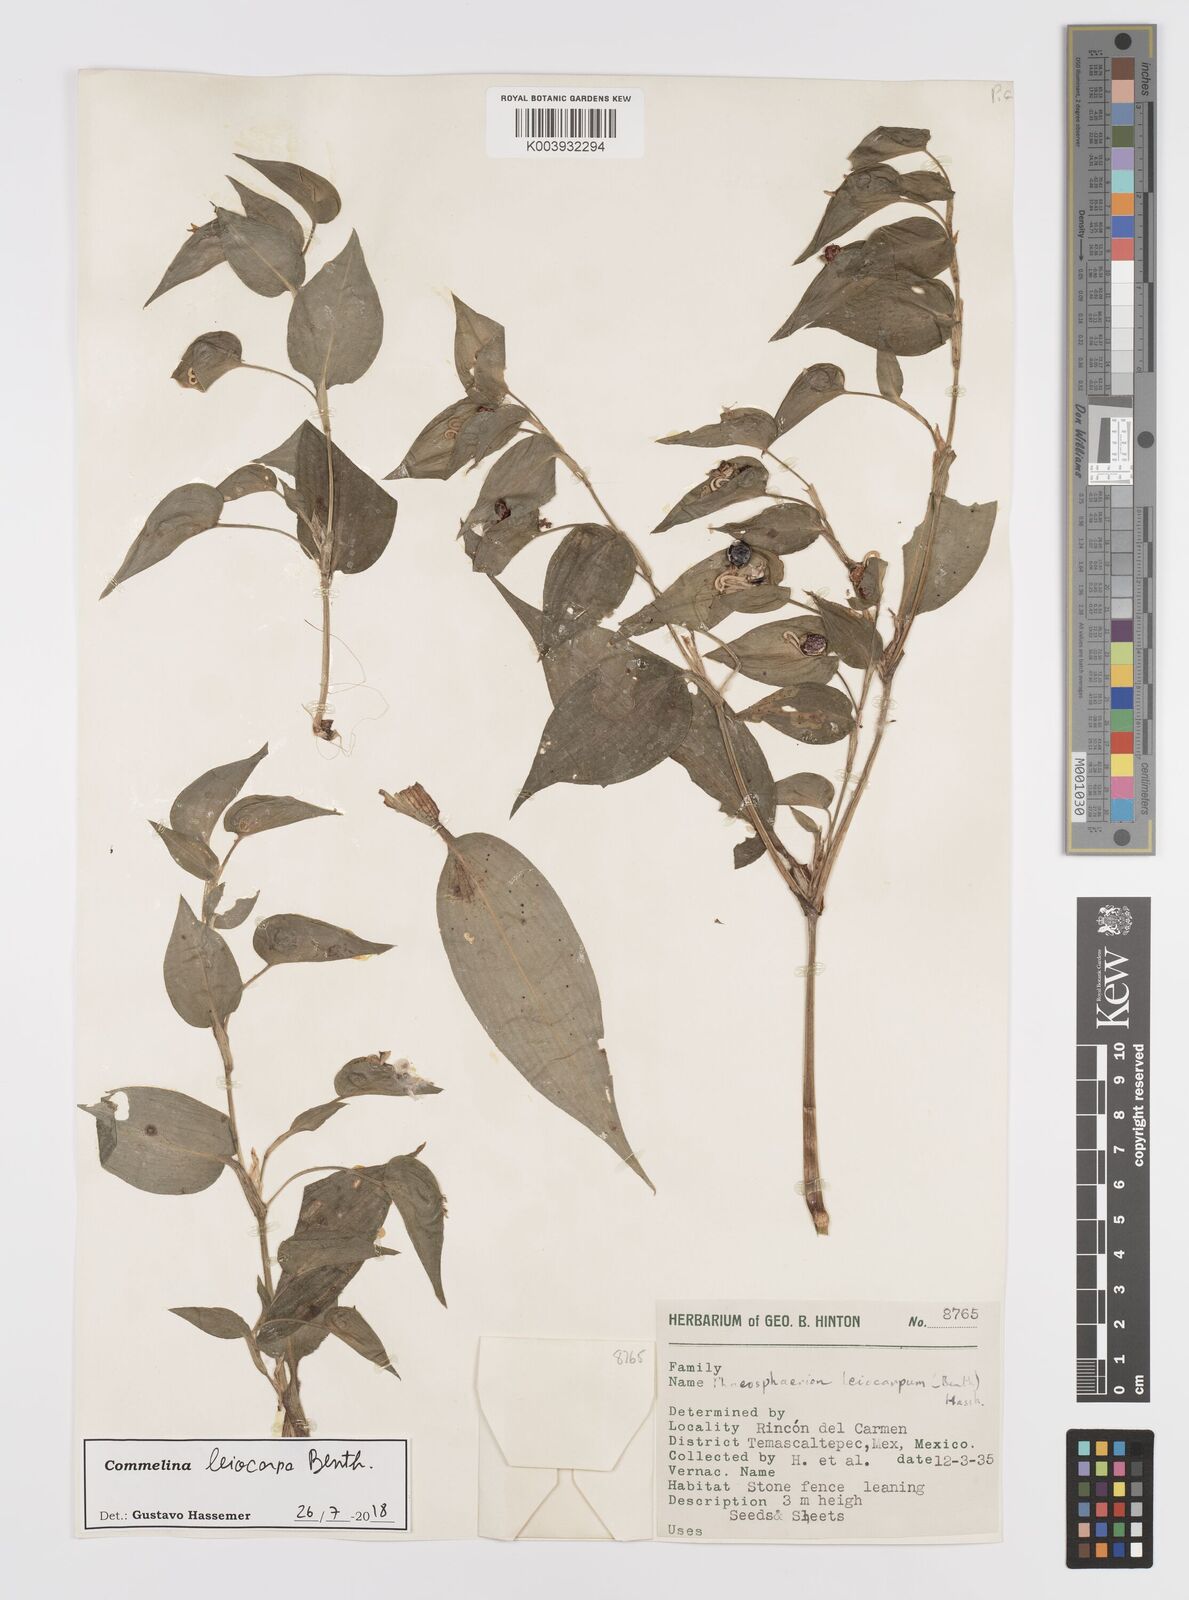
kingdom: Plantae
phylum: Tracheophyta
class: Liliopsida
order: Commelinales
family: Commelinaceae
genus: Commelina
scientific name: Commelina leiocarpa
